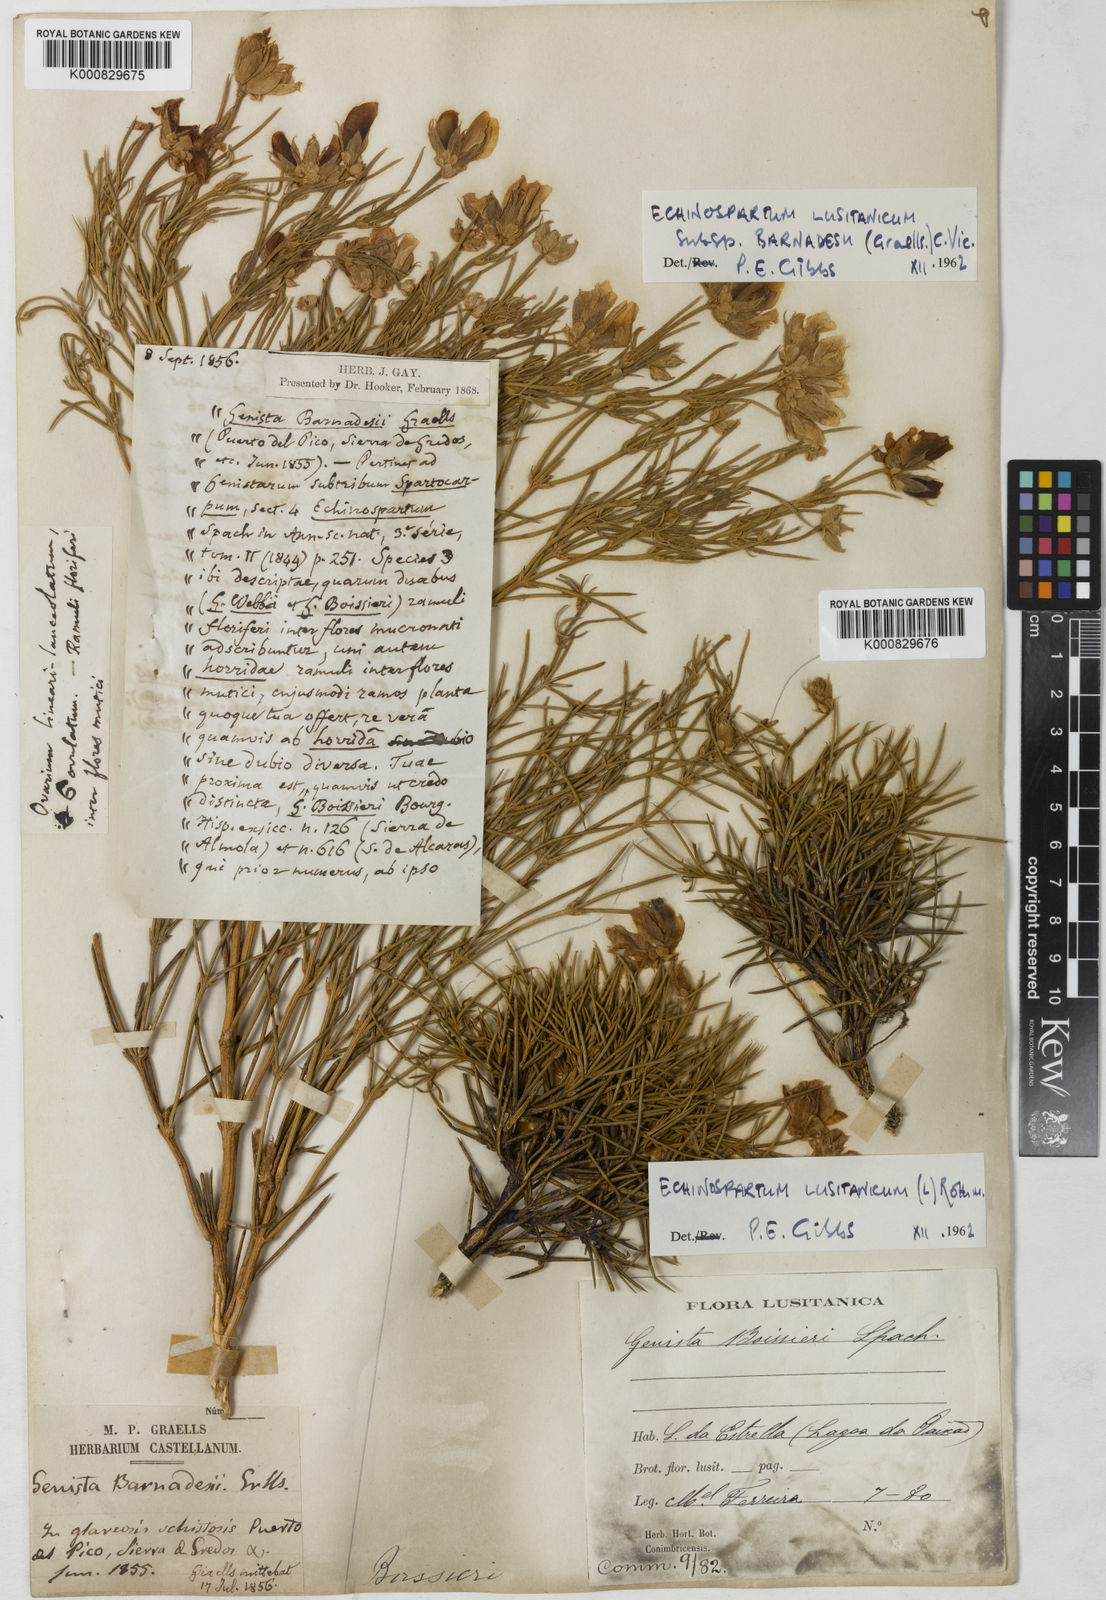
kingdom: Plantae
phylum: Tracheophyta
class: Magnoliopsida
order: Fabales
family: Fabaceae
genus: Echinospartum
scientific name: Echinospartum lusitanicum
